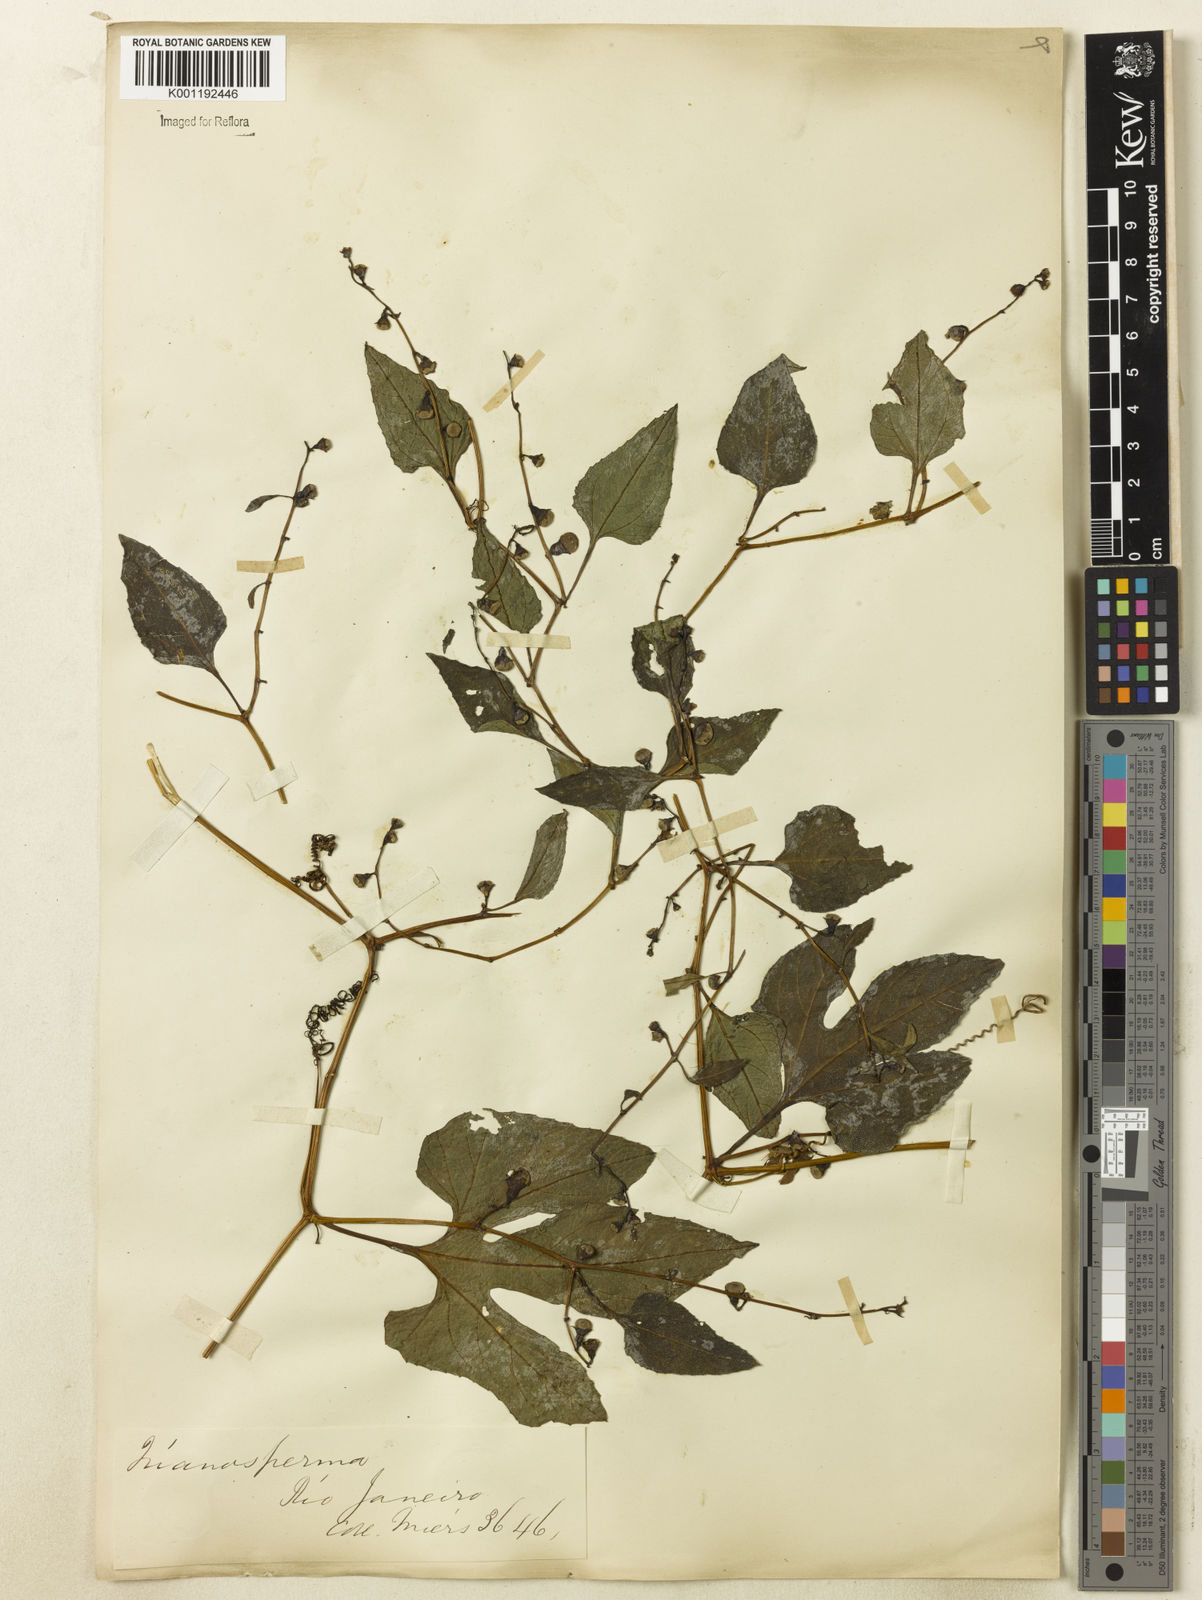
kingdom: Plantae
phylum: Tracheophyta
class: Magnoliopsida
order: Cucurbitales
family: Cucurbitaceae
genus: Cayaponia
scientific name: Cayaponia tayuya
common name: Tayuya
